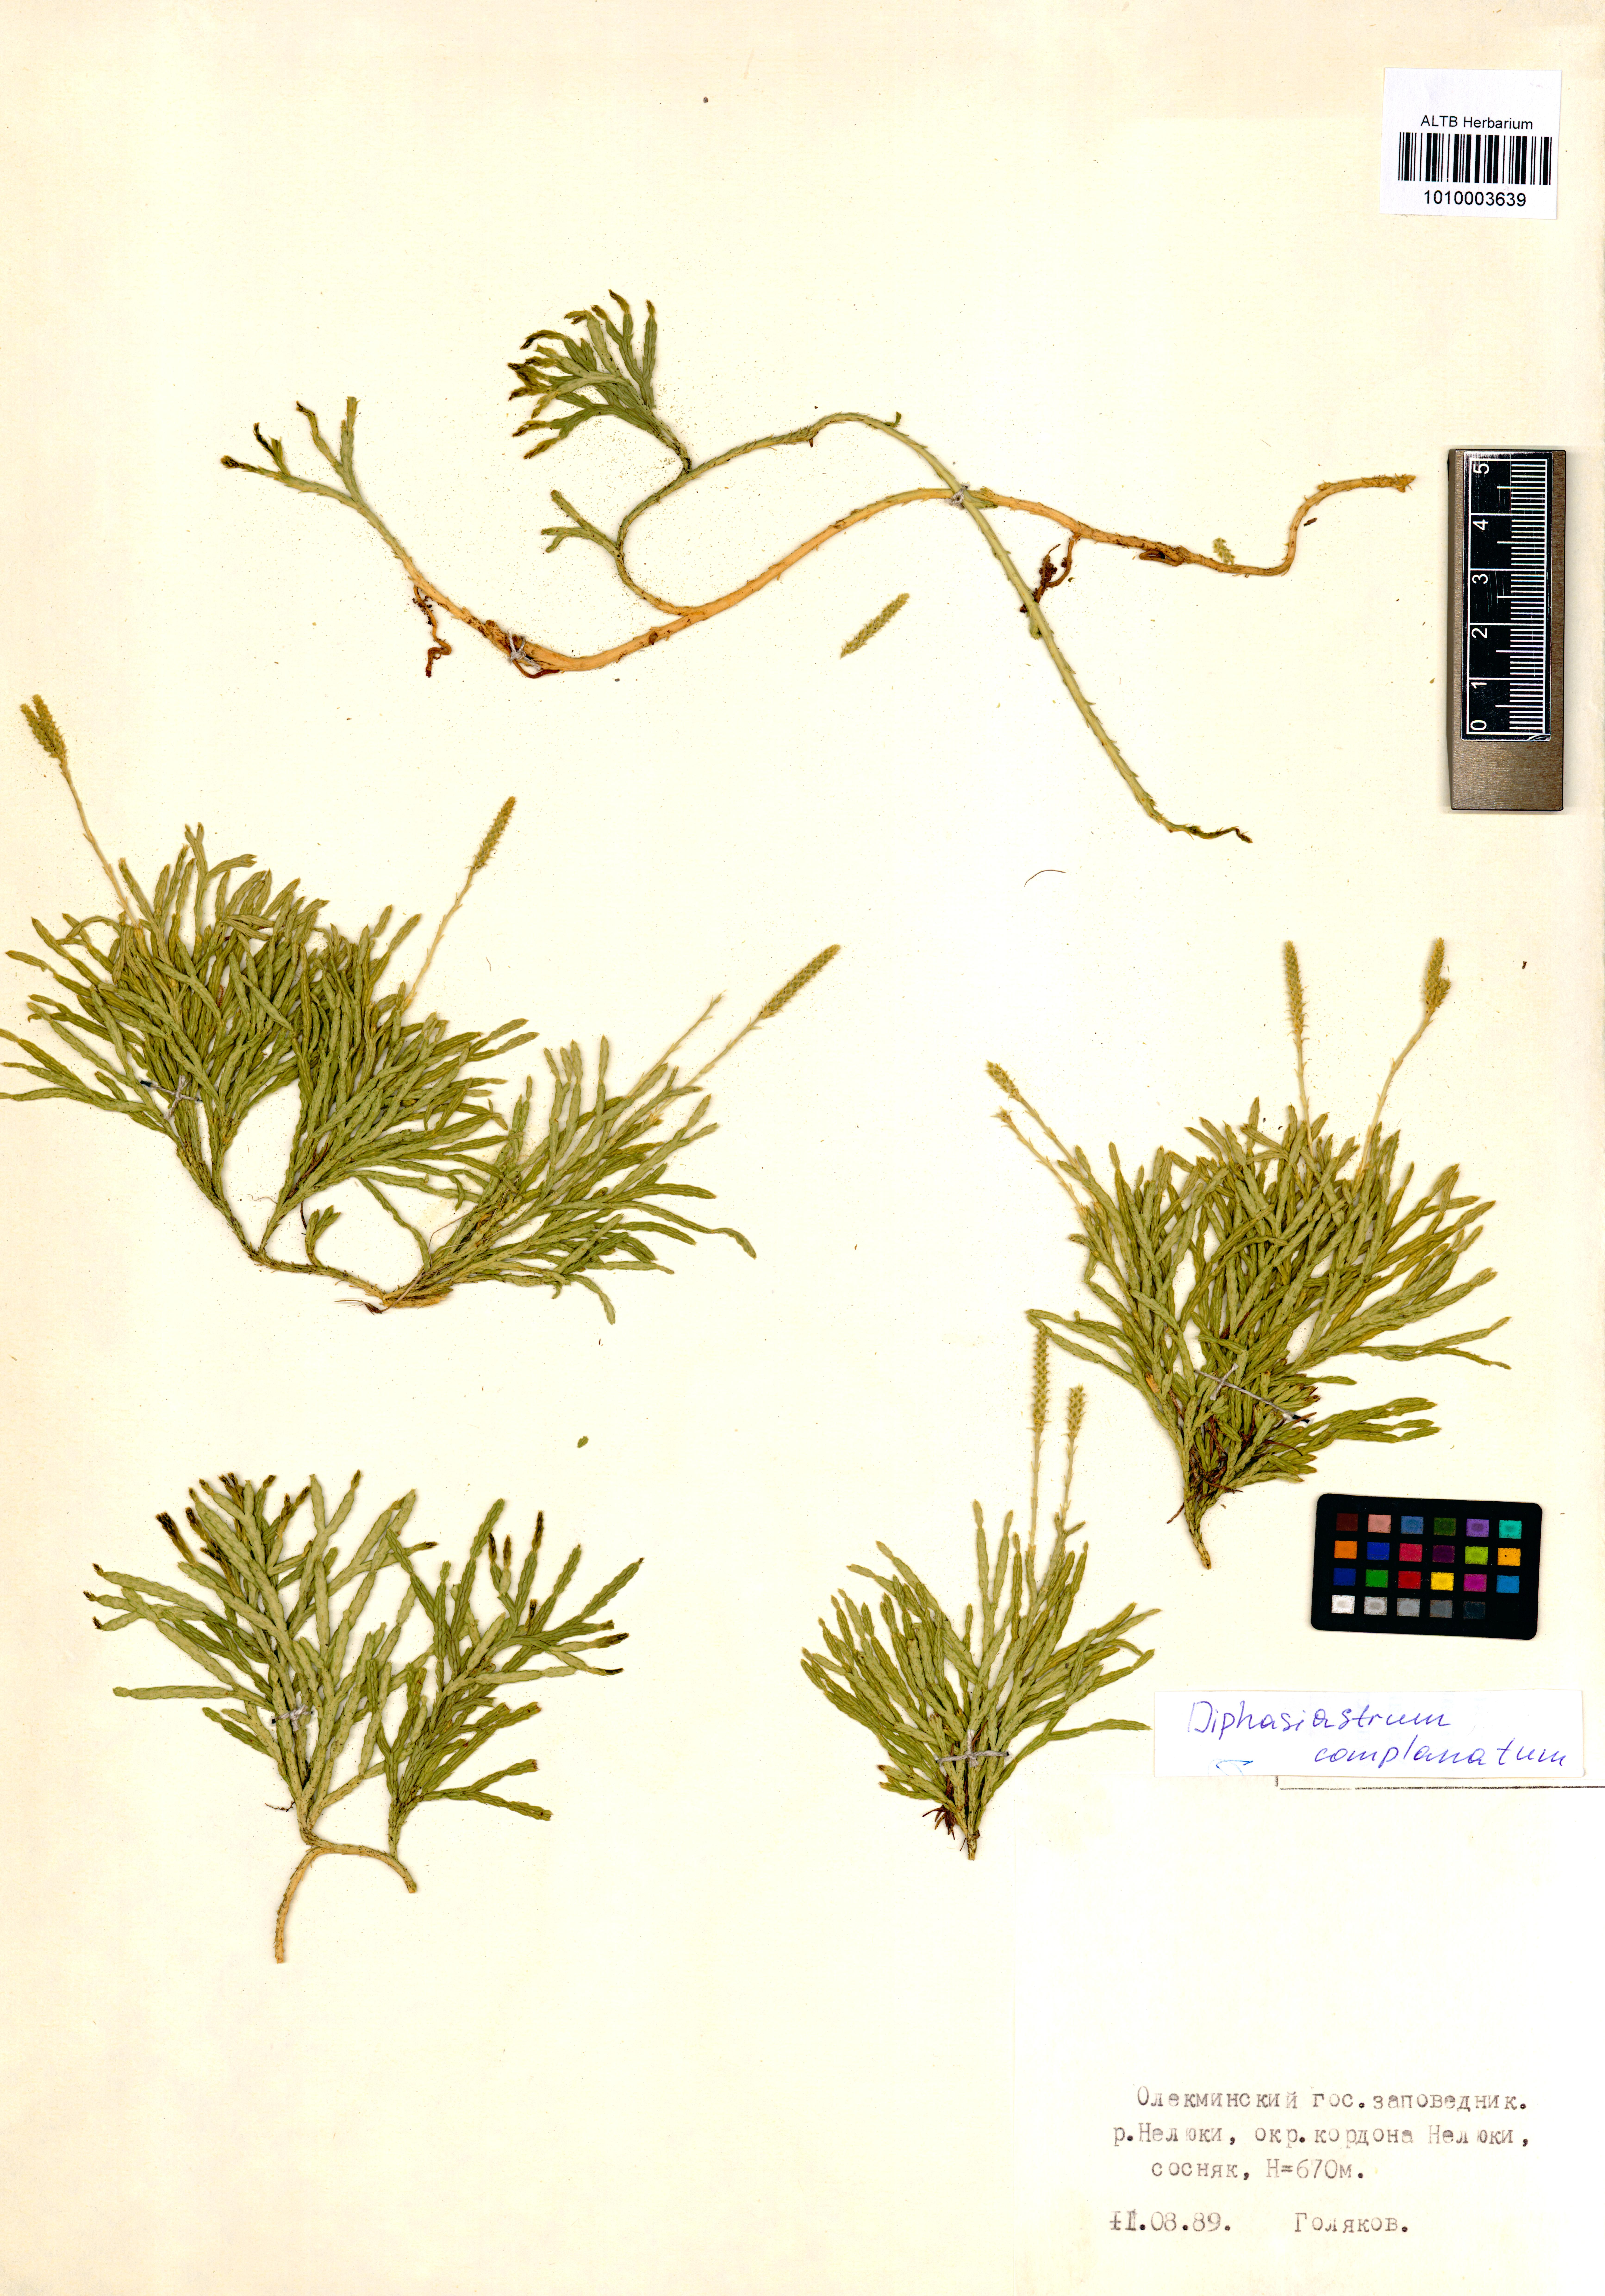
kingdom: Plantae
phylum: Tracheophyta
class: Lycopodiopsida
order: Lycopodiales
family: Lycopodiaceae
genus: Diphasiastrum
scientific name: Diphasiastrum complanatum
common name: Northern running-pine
